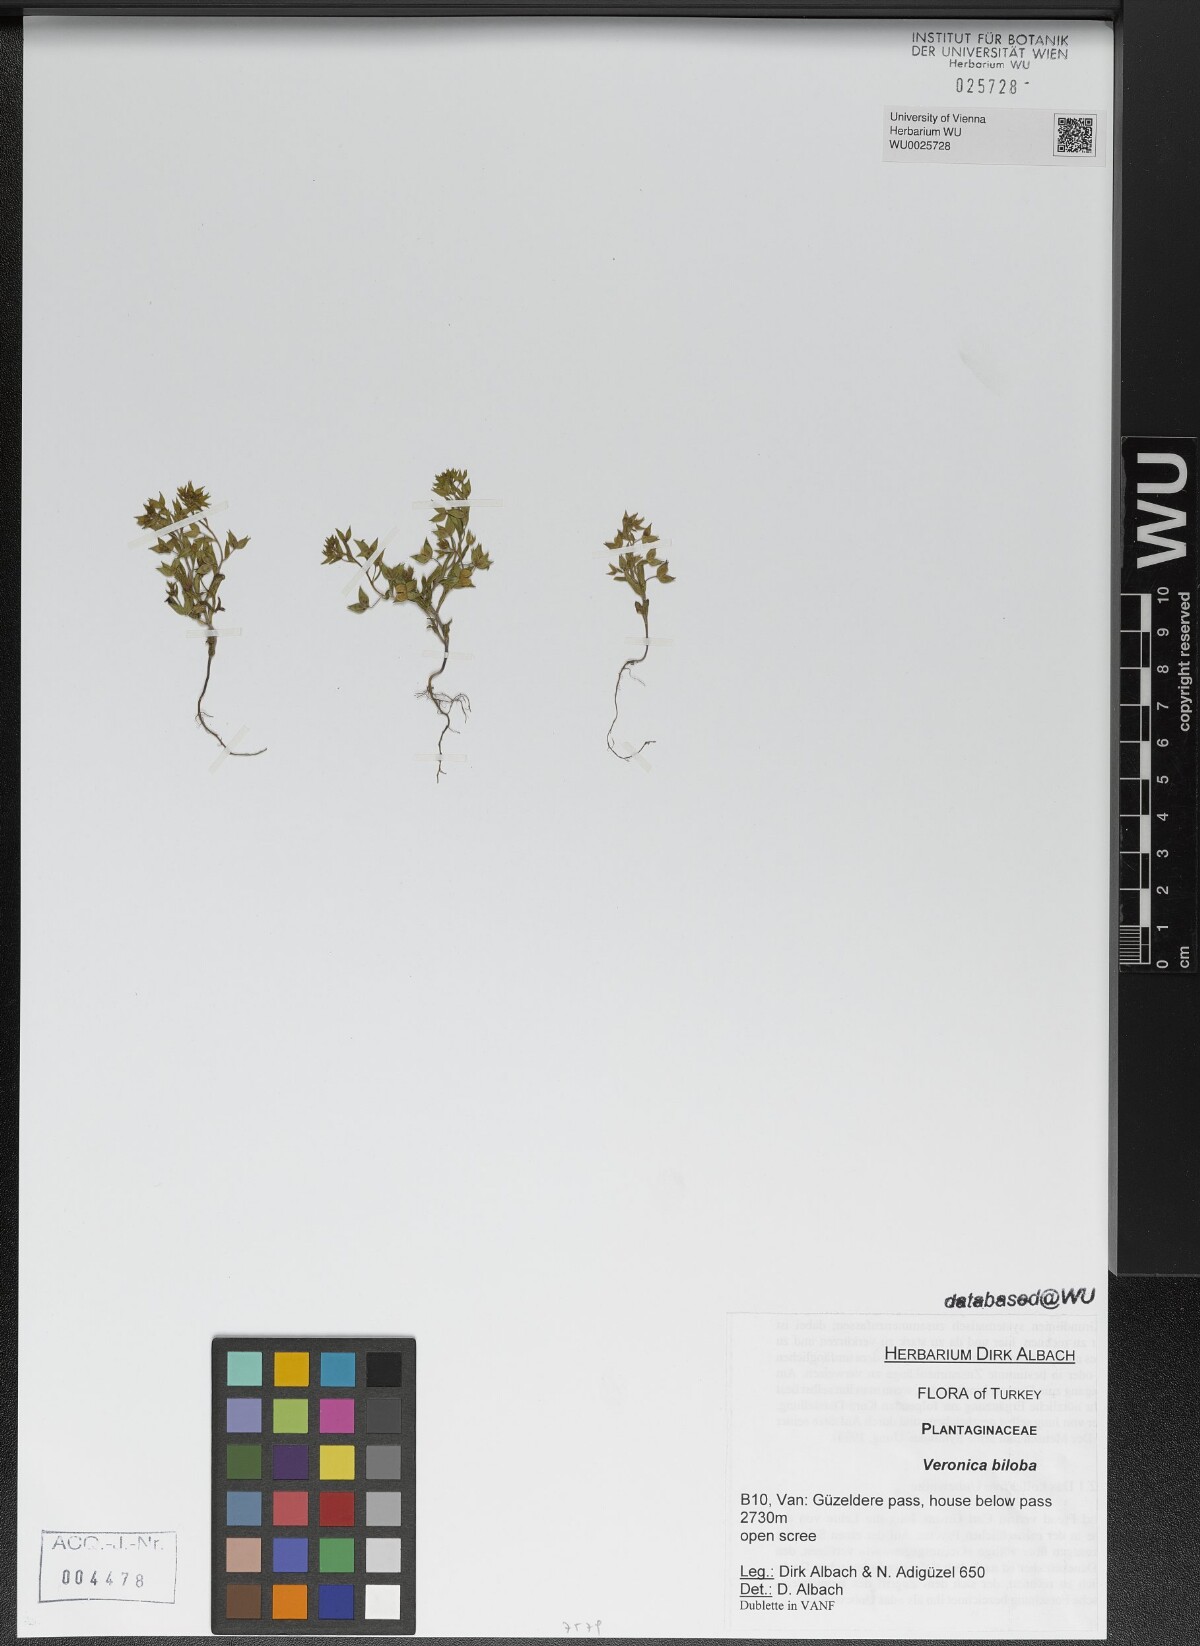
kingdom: Plantae
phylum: Tracheophyta
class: Magnoliopsida
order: Lamiales
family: Plantaginaceae
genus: Veronica
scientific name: Veronica biloba
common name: Twolobe speedwell
